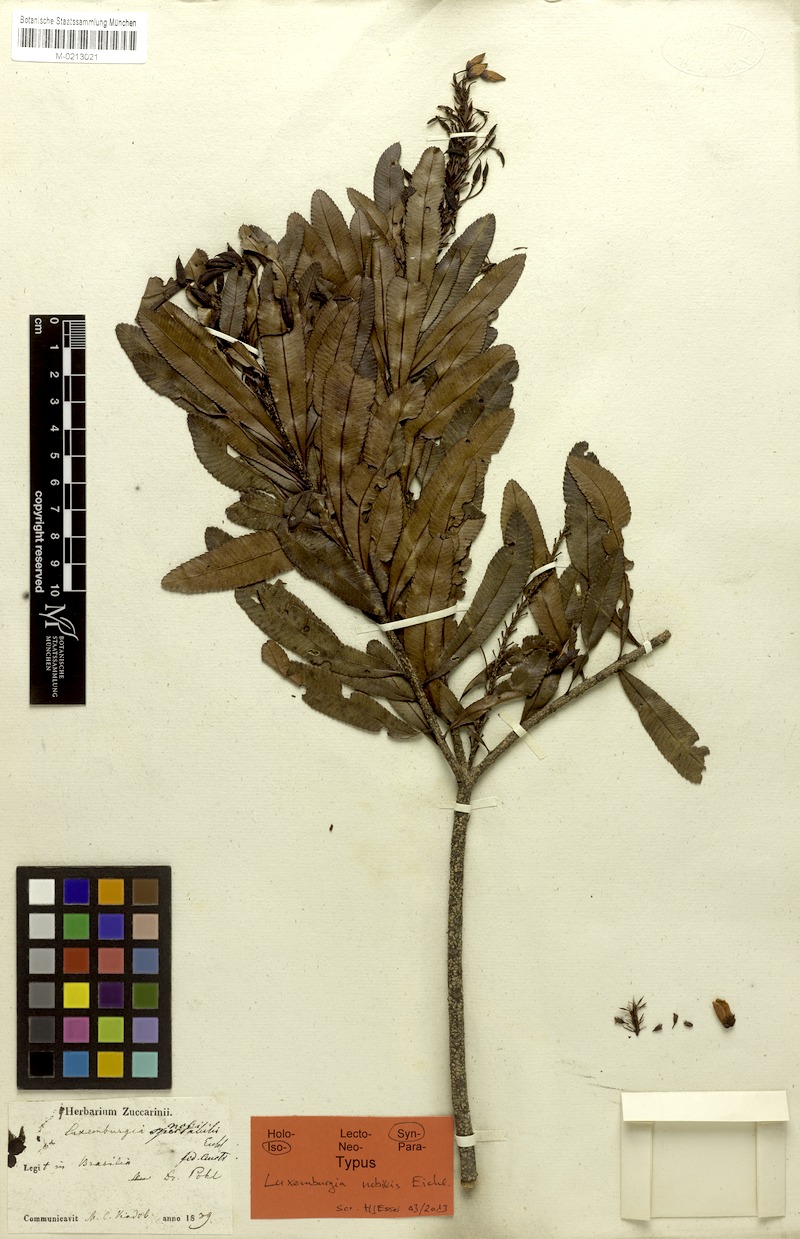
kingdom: Plantae
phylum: Tracheophyta
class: Magnoliopsida
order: Malpighiales
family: Ochnaceae
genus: Luxemburgia
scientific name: Luxemburgia nobilis
